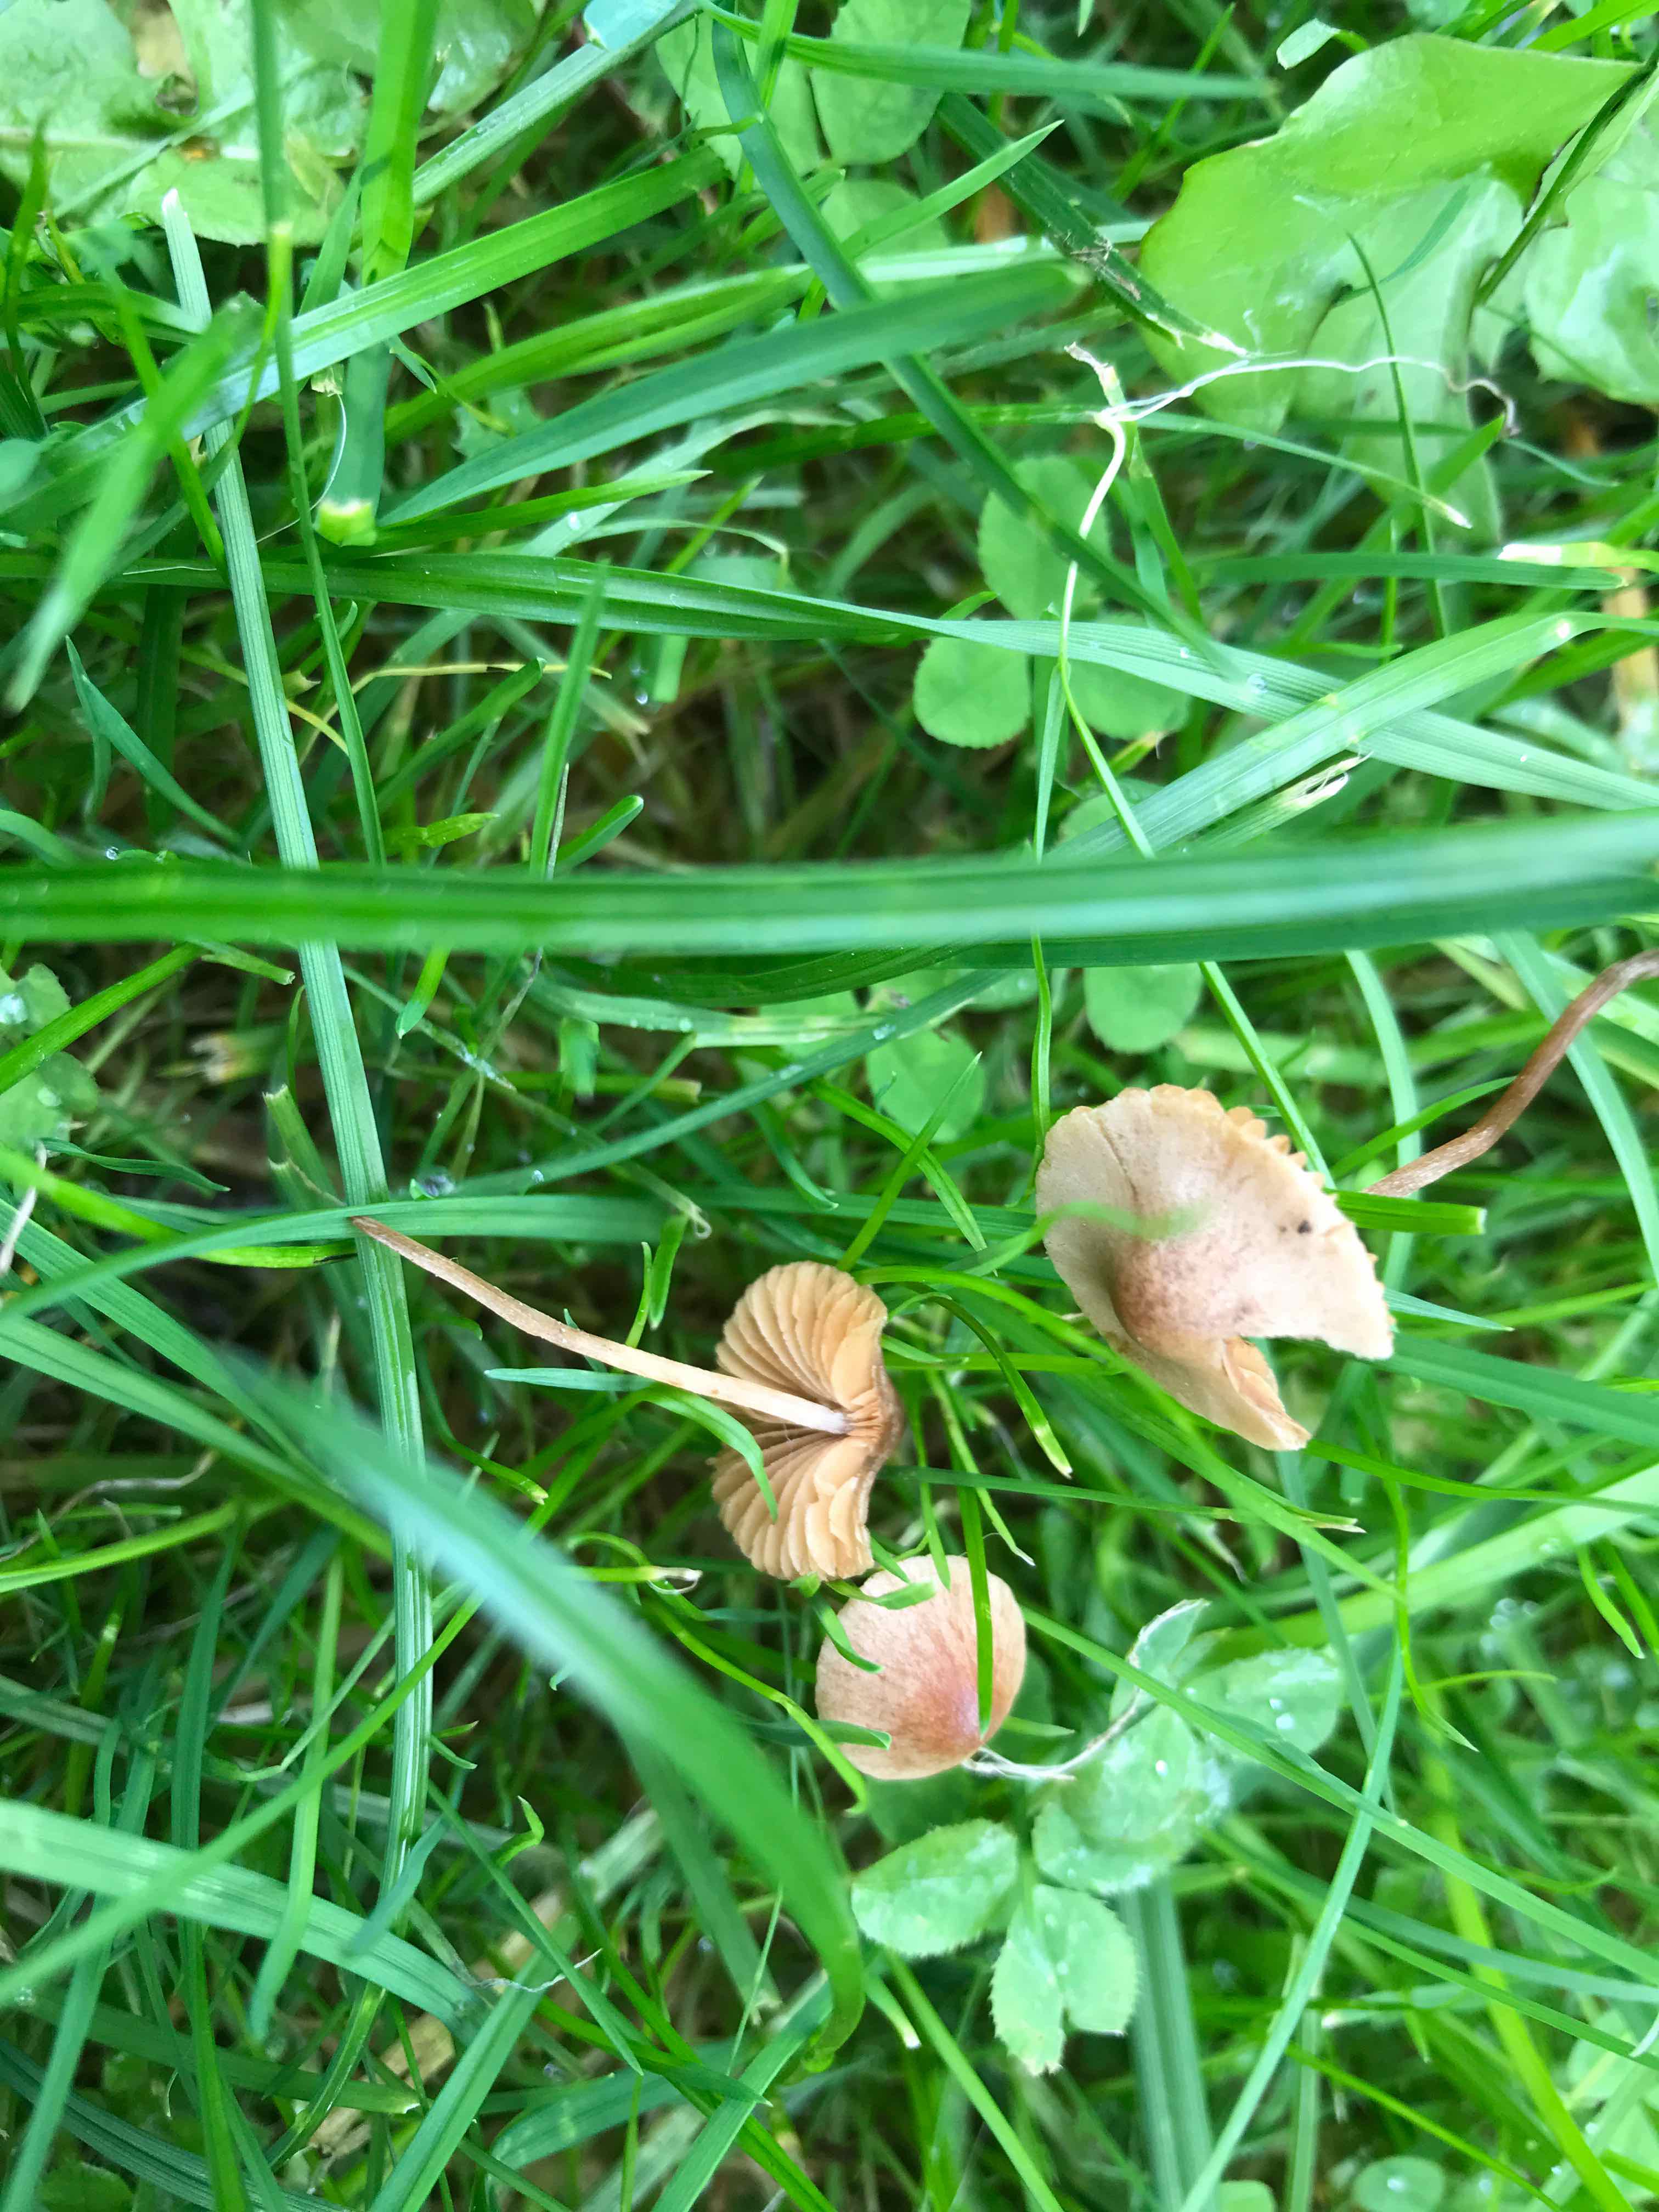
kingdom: Fungi
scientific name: Fungi
